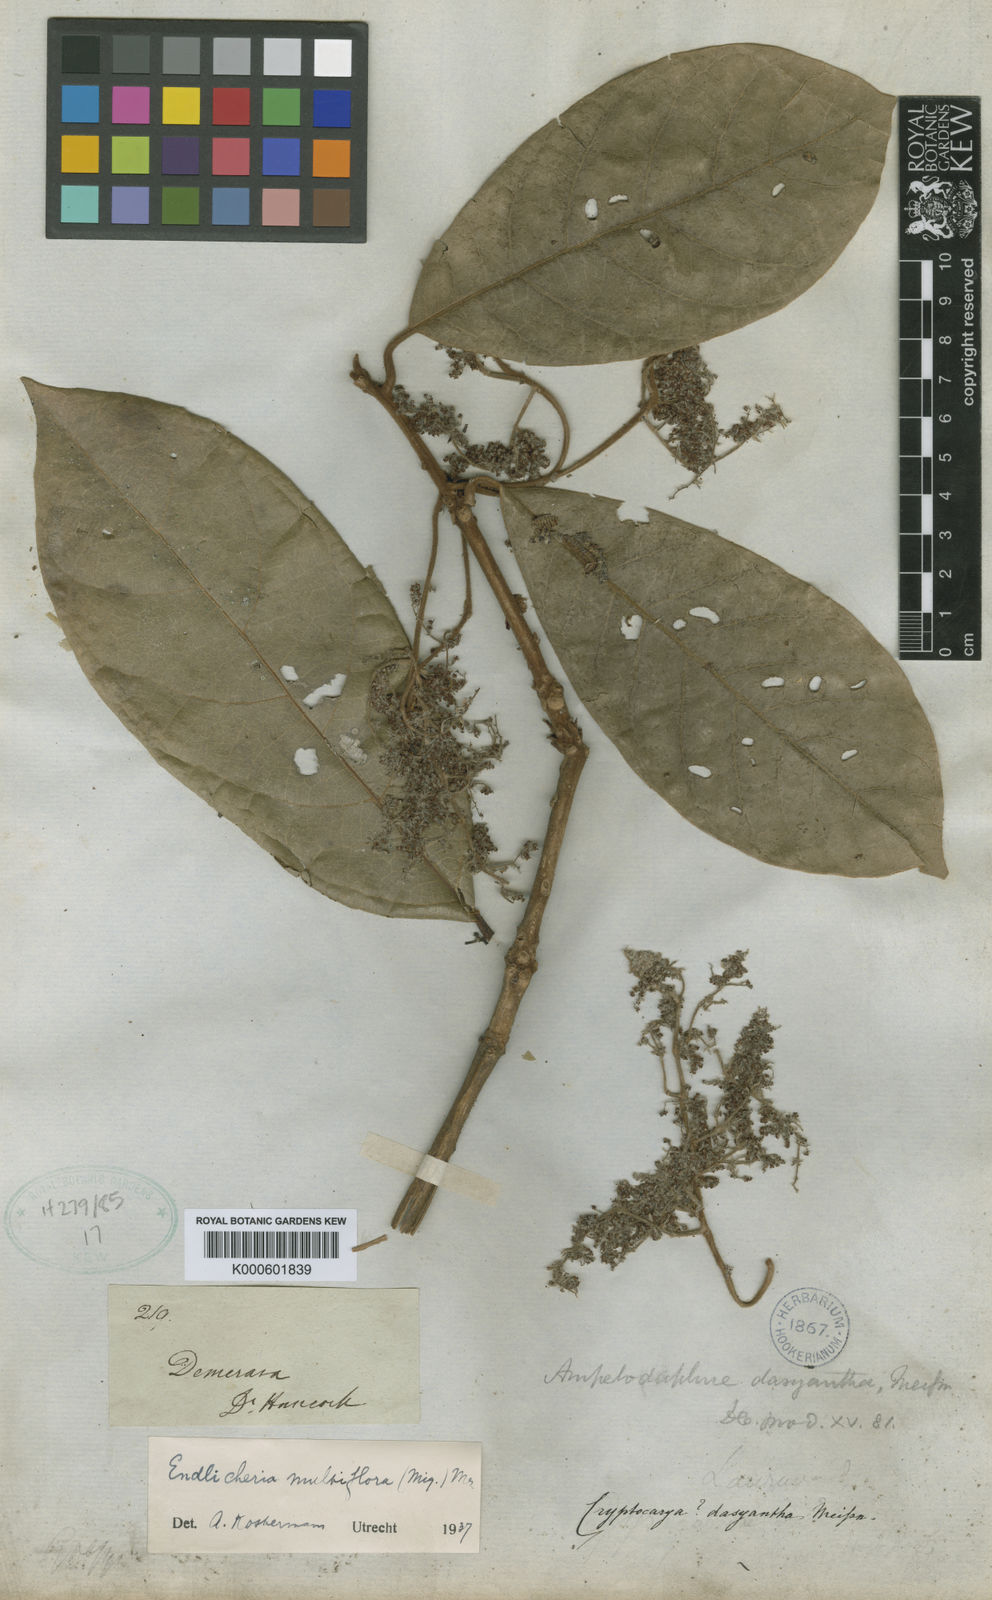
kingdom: Plantae
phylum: Tracheophyta
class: Magnoliopsida
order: Laurales
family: Lauraceae
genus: Endlicheria
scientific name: Endlicheria multiflora
